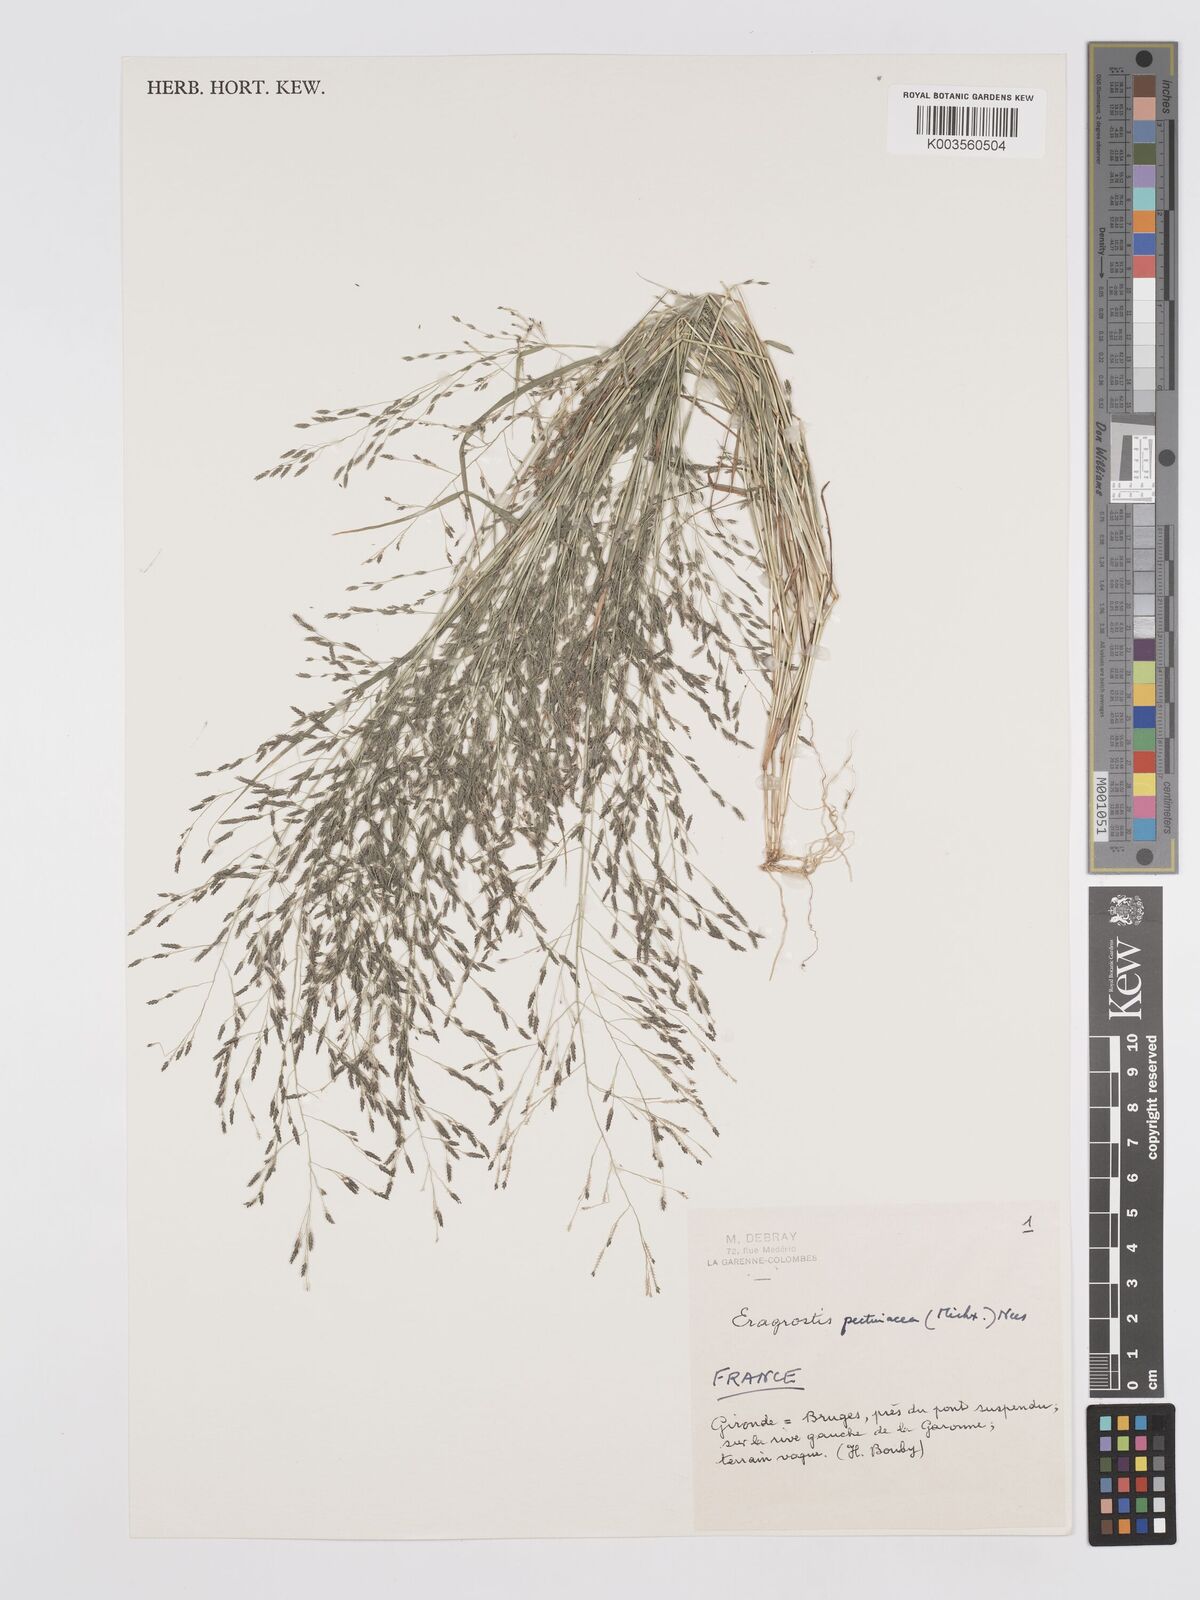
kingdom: Plantae
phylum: Tracheophyta
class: Liliopsida
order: Poales
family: Poaceae
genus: Eragrostis
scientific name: Eragrostis pectinacea
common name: Tufted lovegrass
